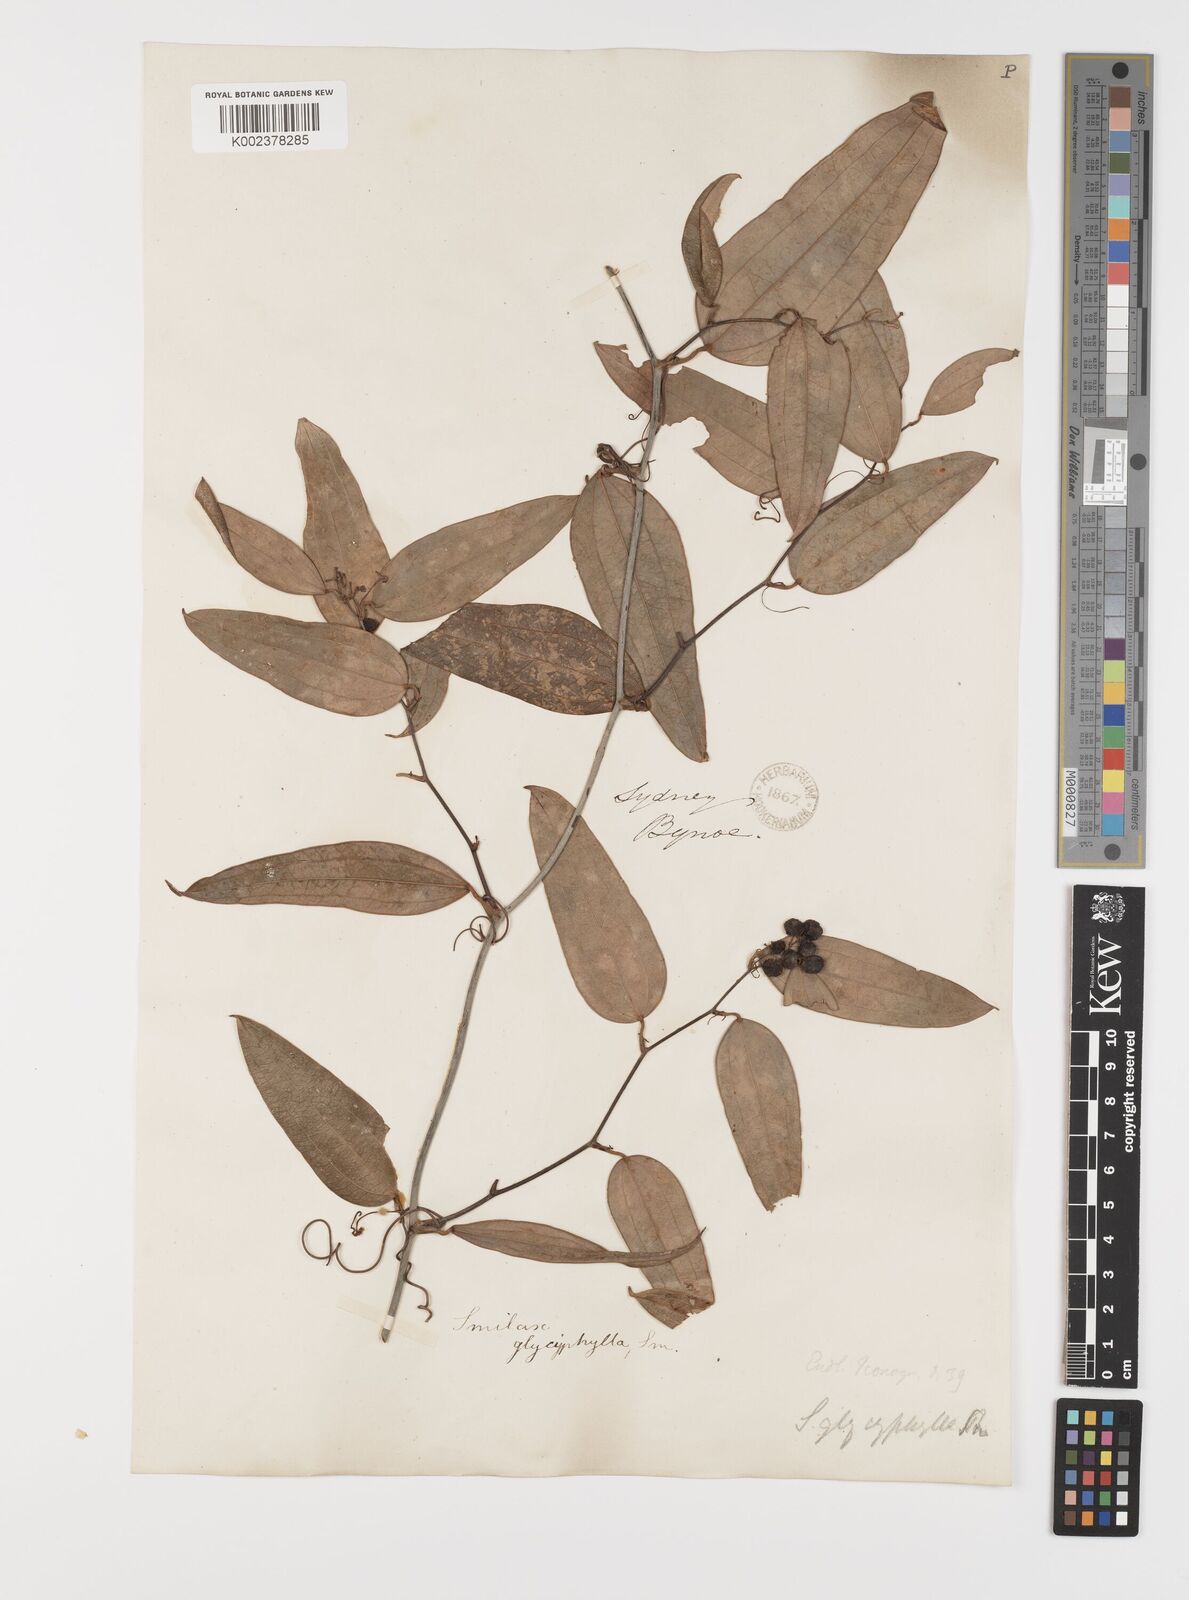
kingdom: Plantae
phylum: Tracheophyta
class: Liliopsida
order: Liliales
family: Smilacaceae
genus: Smilax
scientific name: Smilax leucophylla
